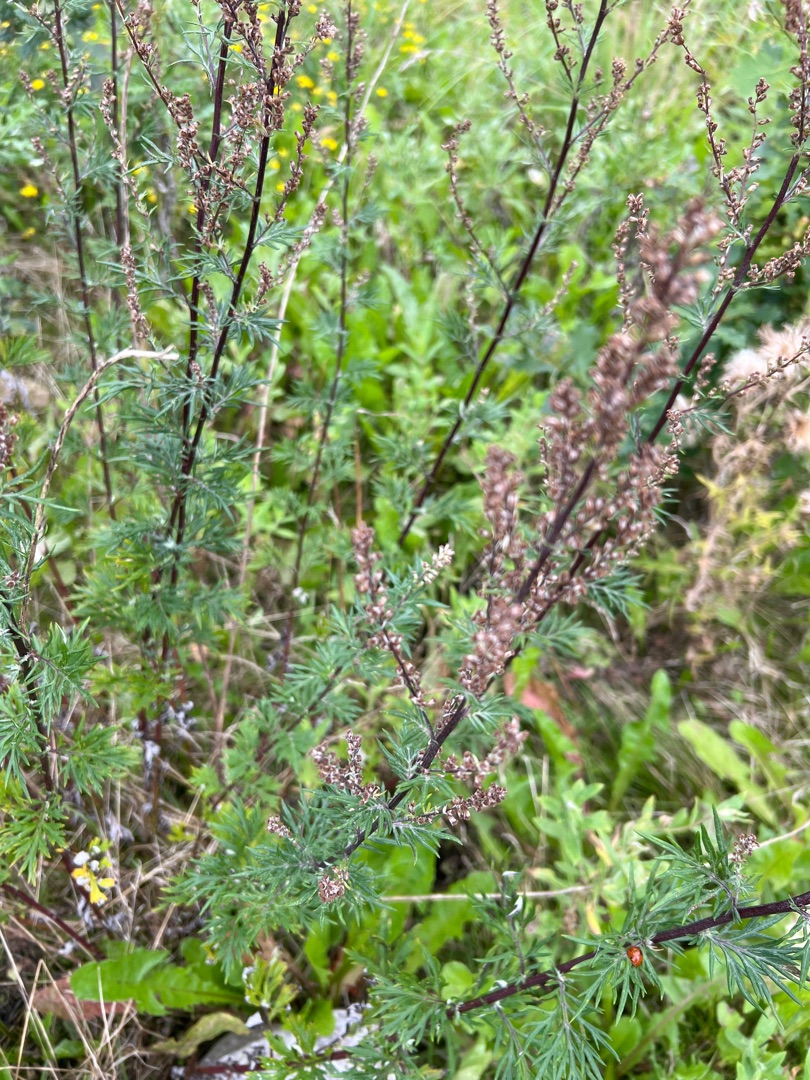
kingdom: Plantae
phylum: Tracheophyta
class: Magnoliopsida
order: Asterales
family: Asteraceae
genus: Artemisia
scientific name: Artemisia vulgaris
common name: Grå-bynke
